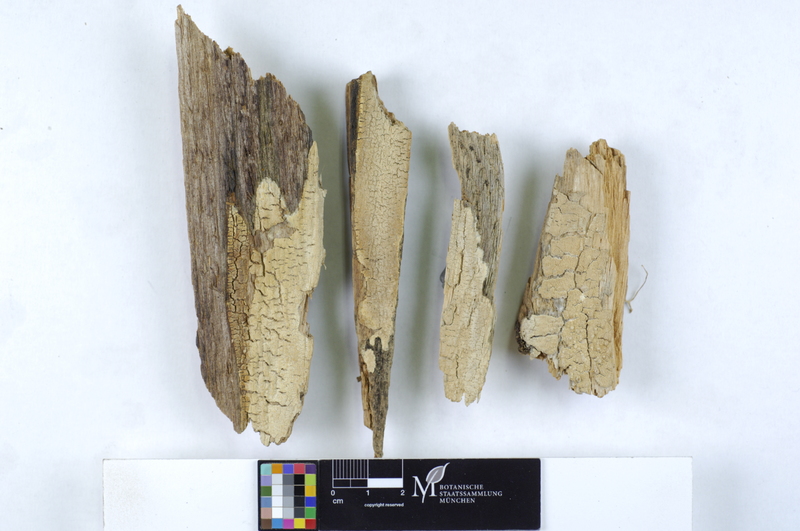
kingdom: Fungi
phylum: Basidiomycota
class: Agaricomycetes
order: Polyporales
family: Irpicaceae
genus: Crystallicutis
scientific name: Crystallicutis serpens
